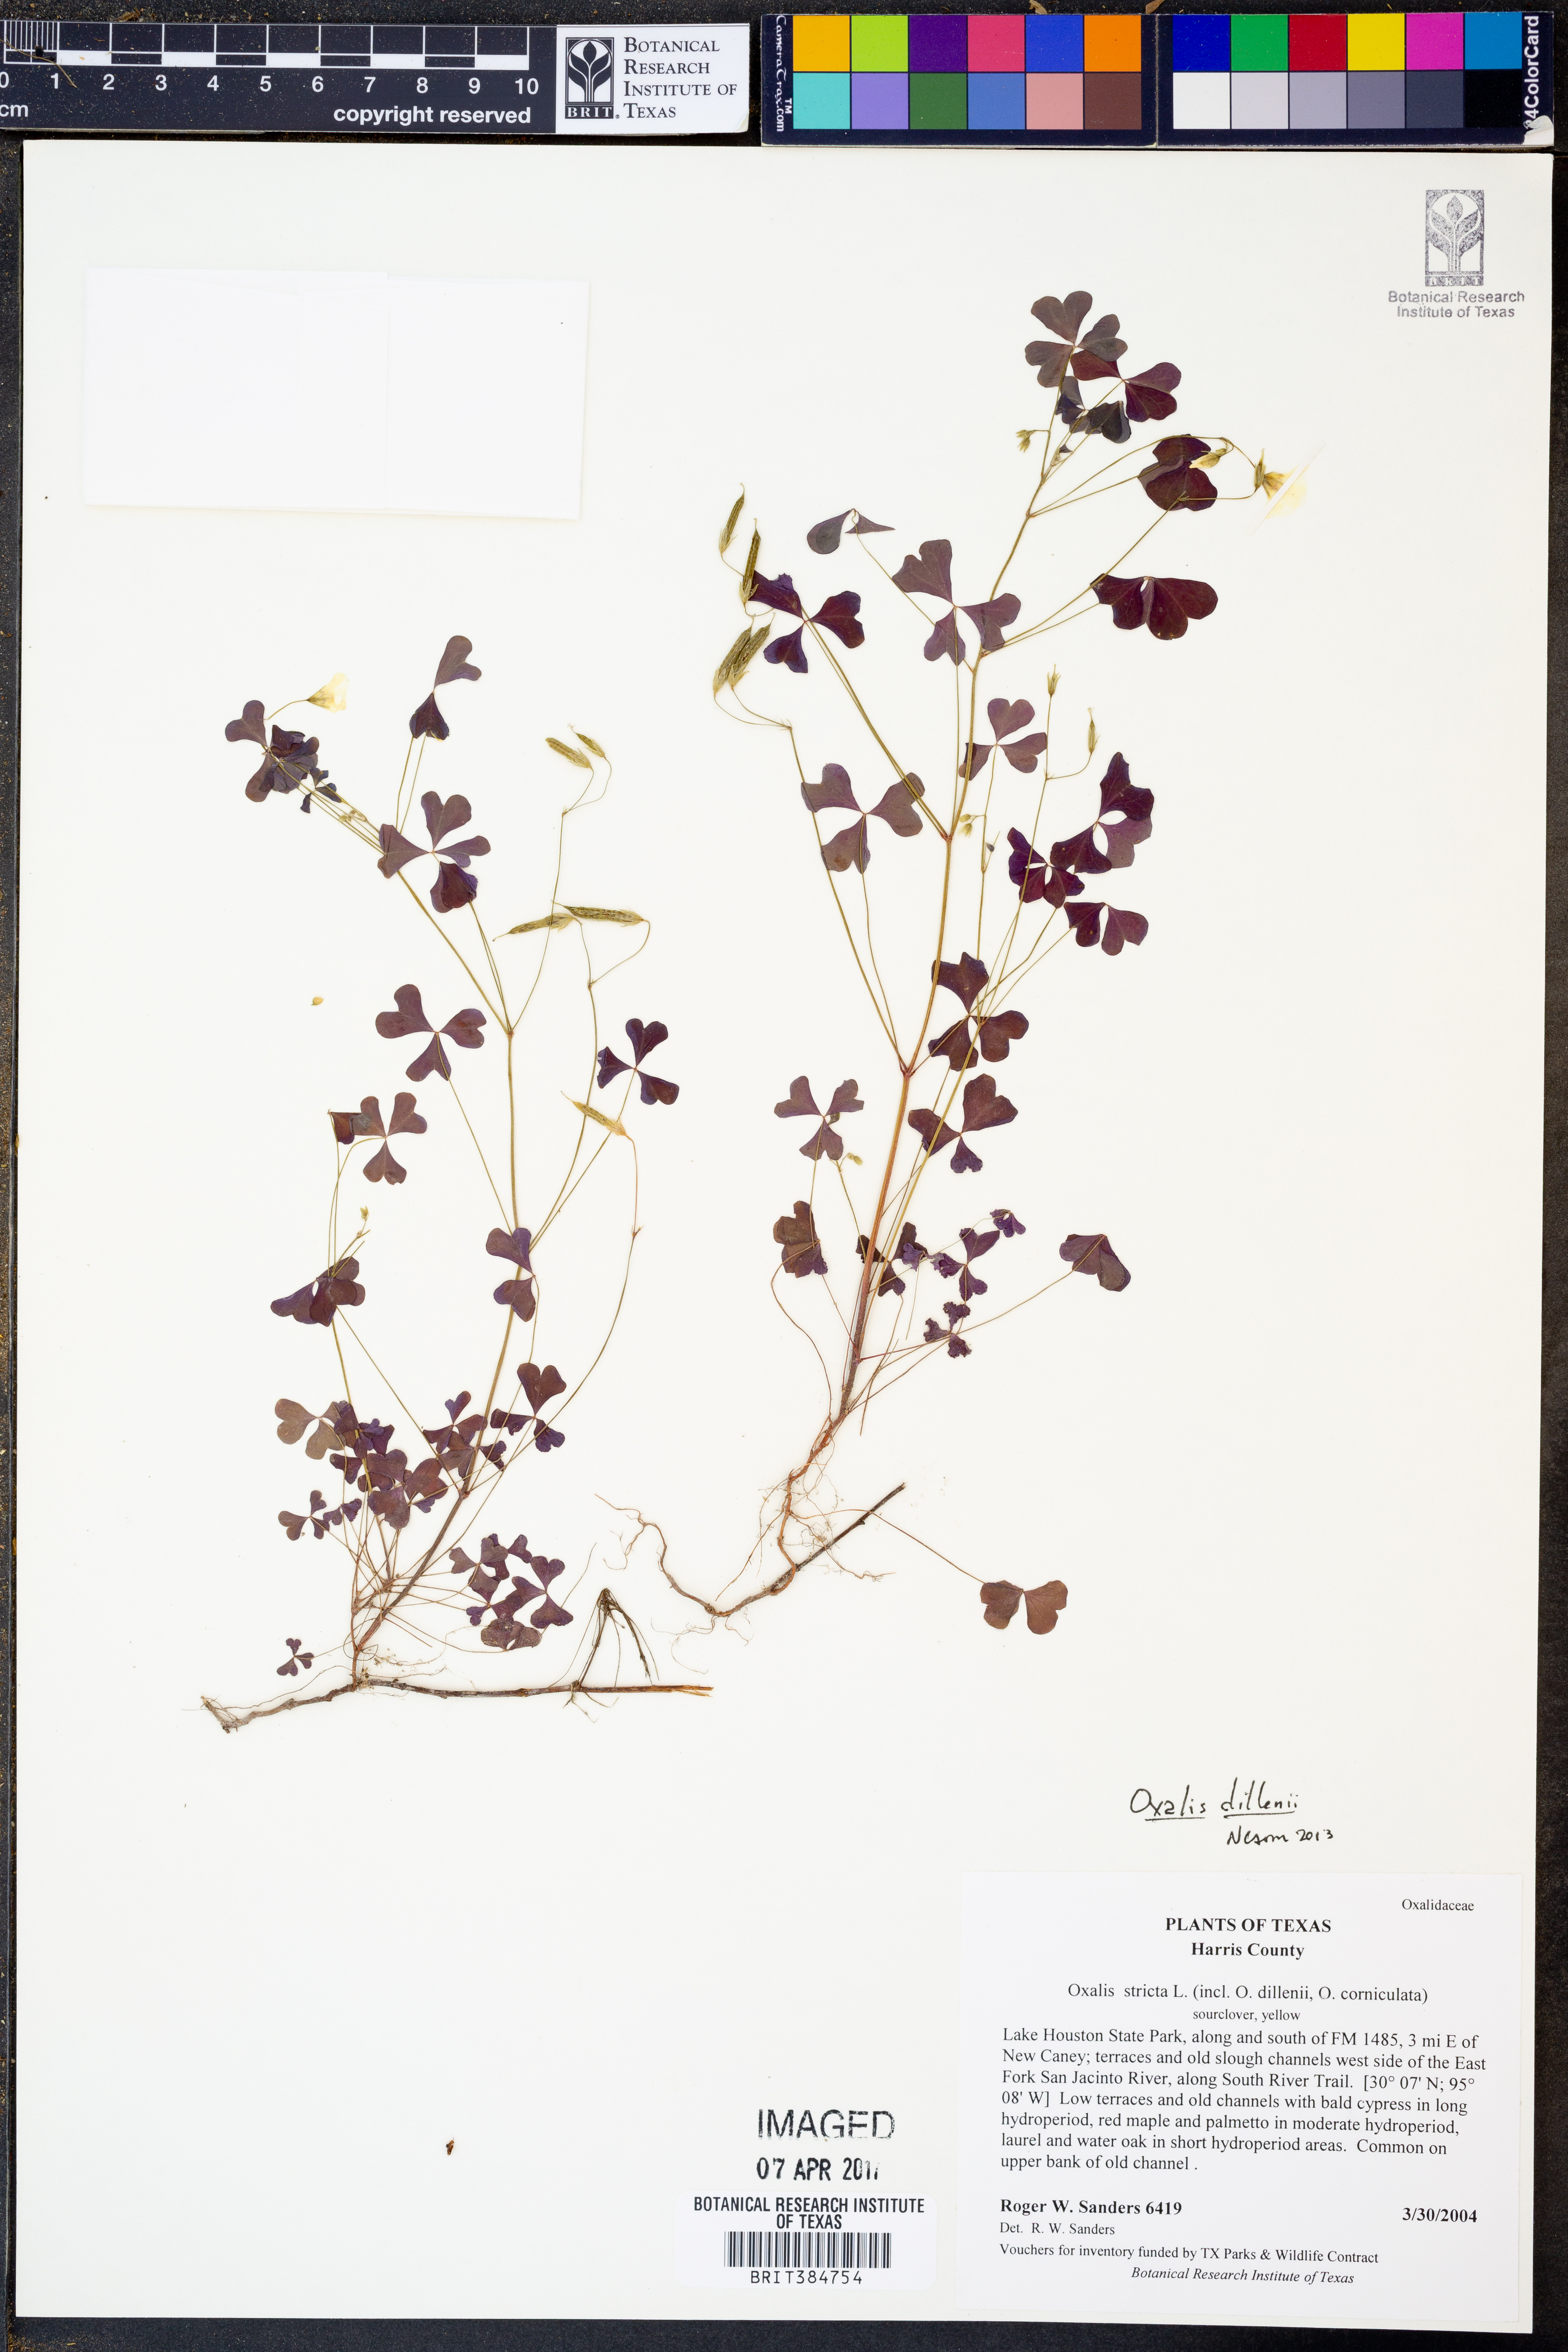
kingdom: Plantae
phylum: Tracheophyta
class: Magnoliopsida
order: Oxalidales
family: Oxalidaceae
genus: Oxalis
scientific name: Oxalis dillenii
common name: Sussex yellow-sorrel
